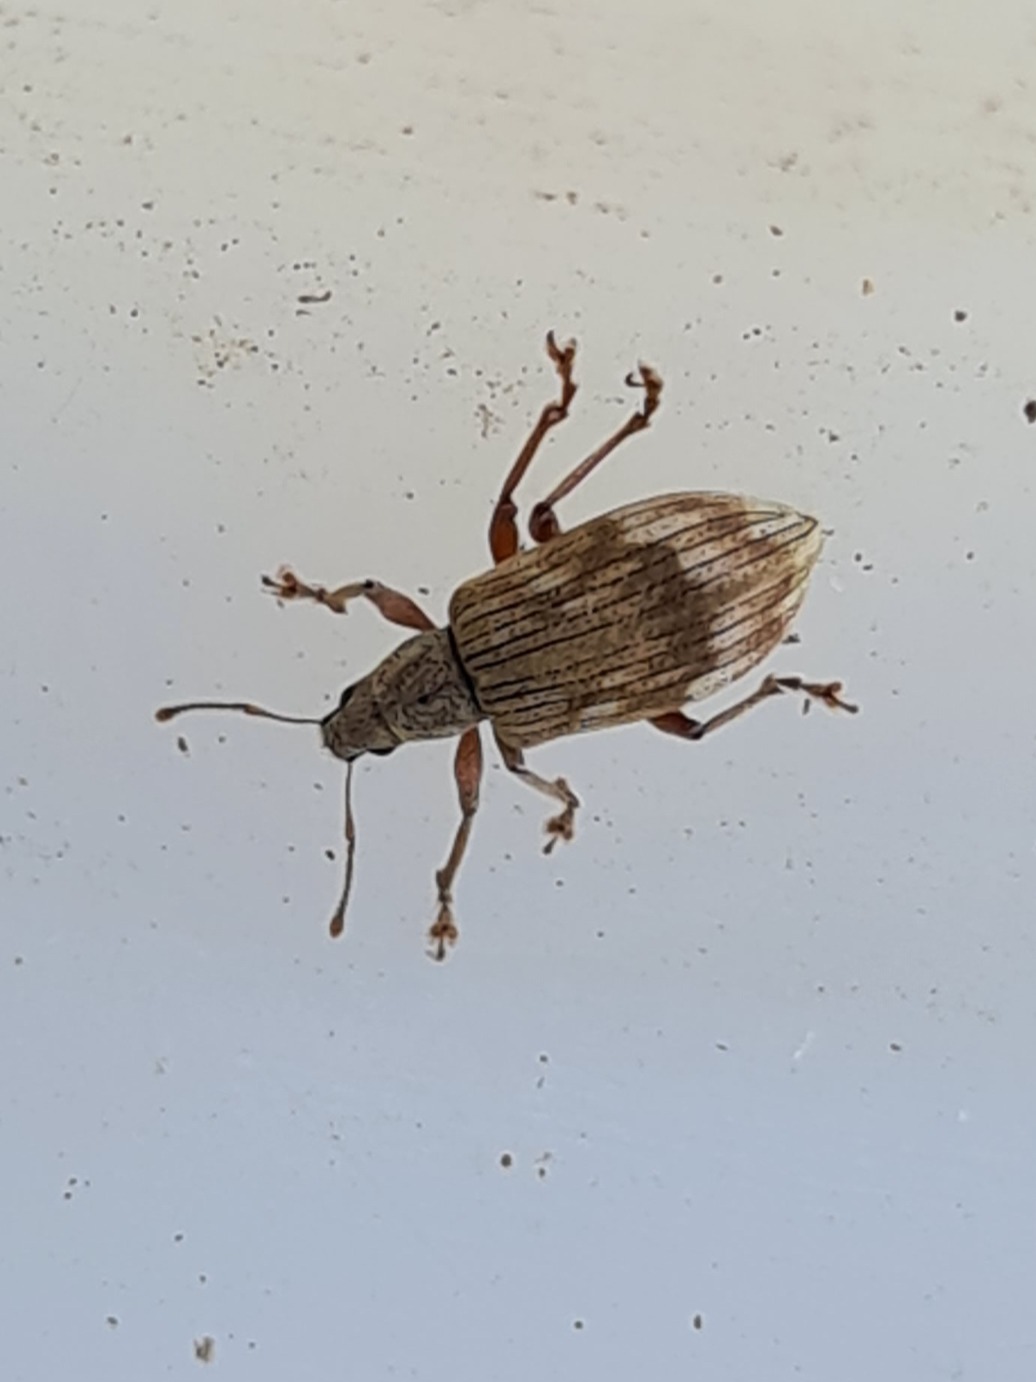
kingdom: Animalia
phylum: Arthropoda
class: Insecta
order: Coleoptera
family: Curculionidae
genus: Polydrusus
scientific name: Polydrusus tereticollis
